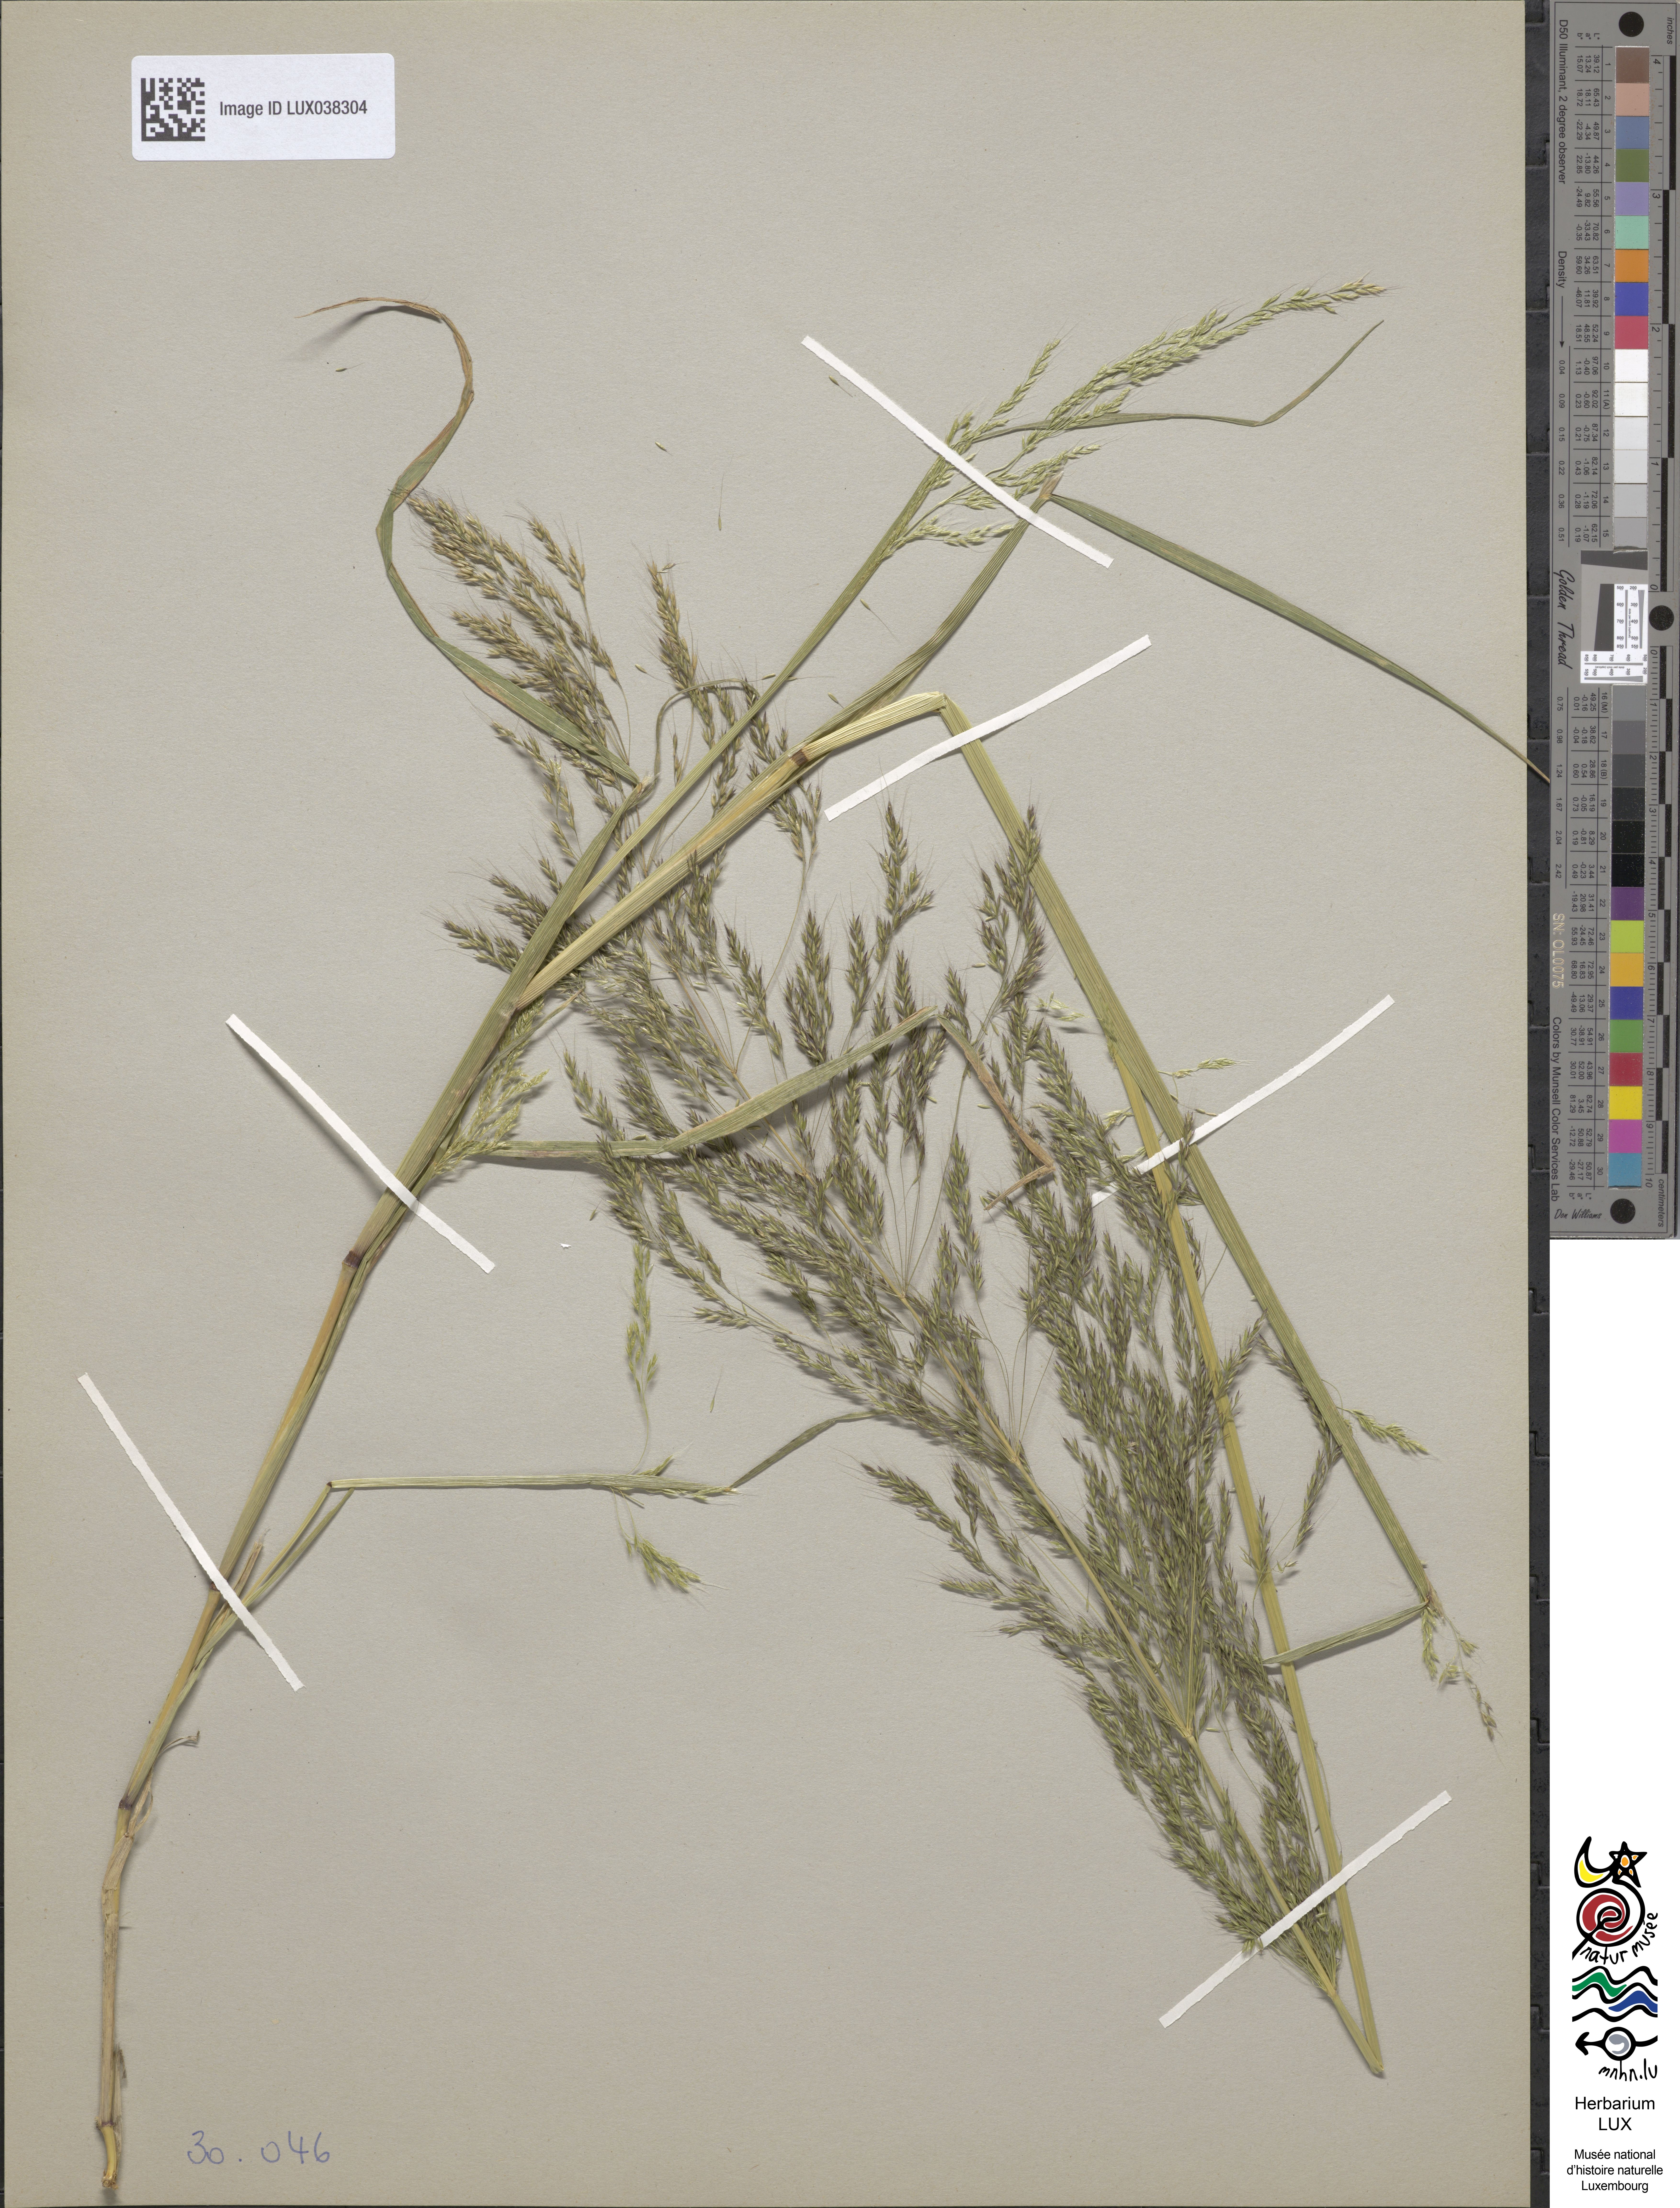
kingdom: Plantae
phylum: Tracheophyta
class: Liliopsida
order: Poales
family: Poaceae
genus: Apera
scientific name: Apera spica-venti
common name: Loose silky-bent
